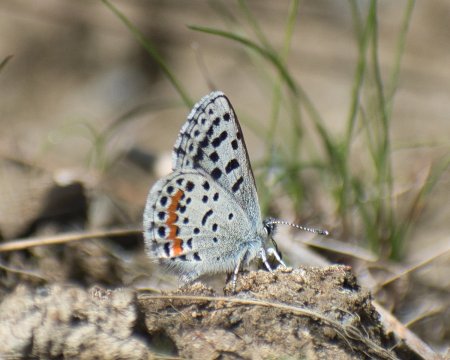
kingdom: Animalia
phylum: Arthropoda
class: Insecta
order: Lepidoptera
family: Lycaenidae
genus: Euphilotes
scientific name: Euphilotes
